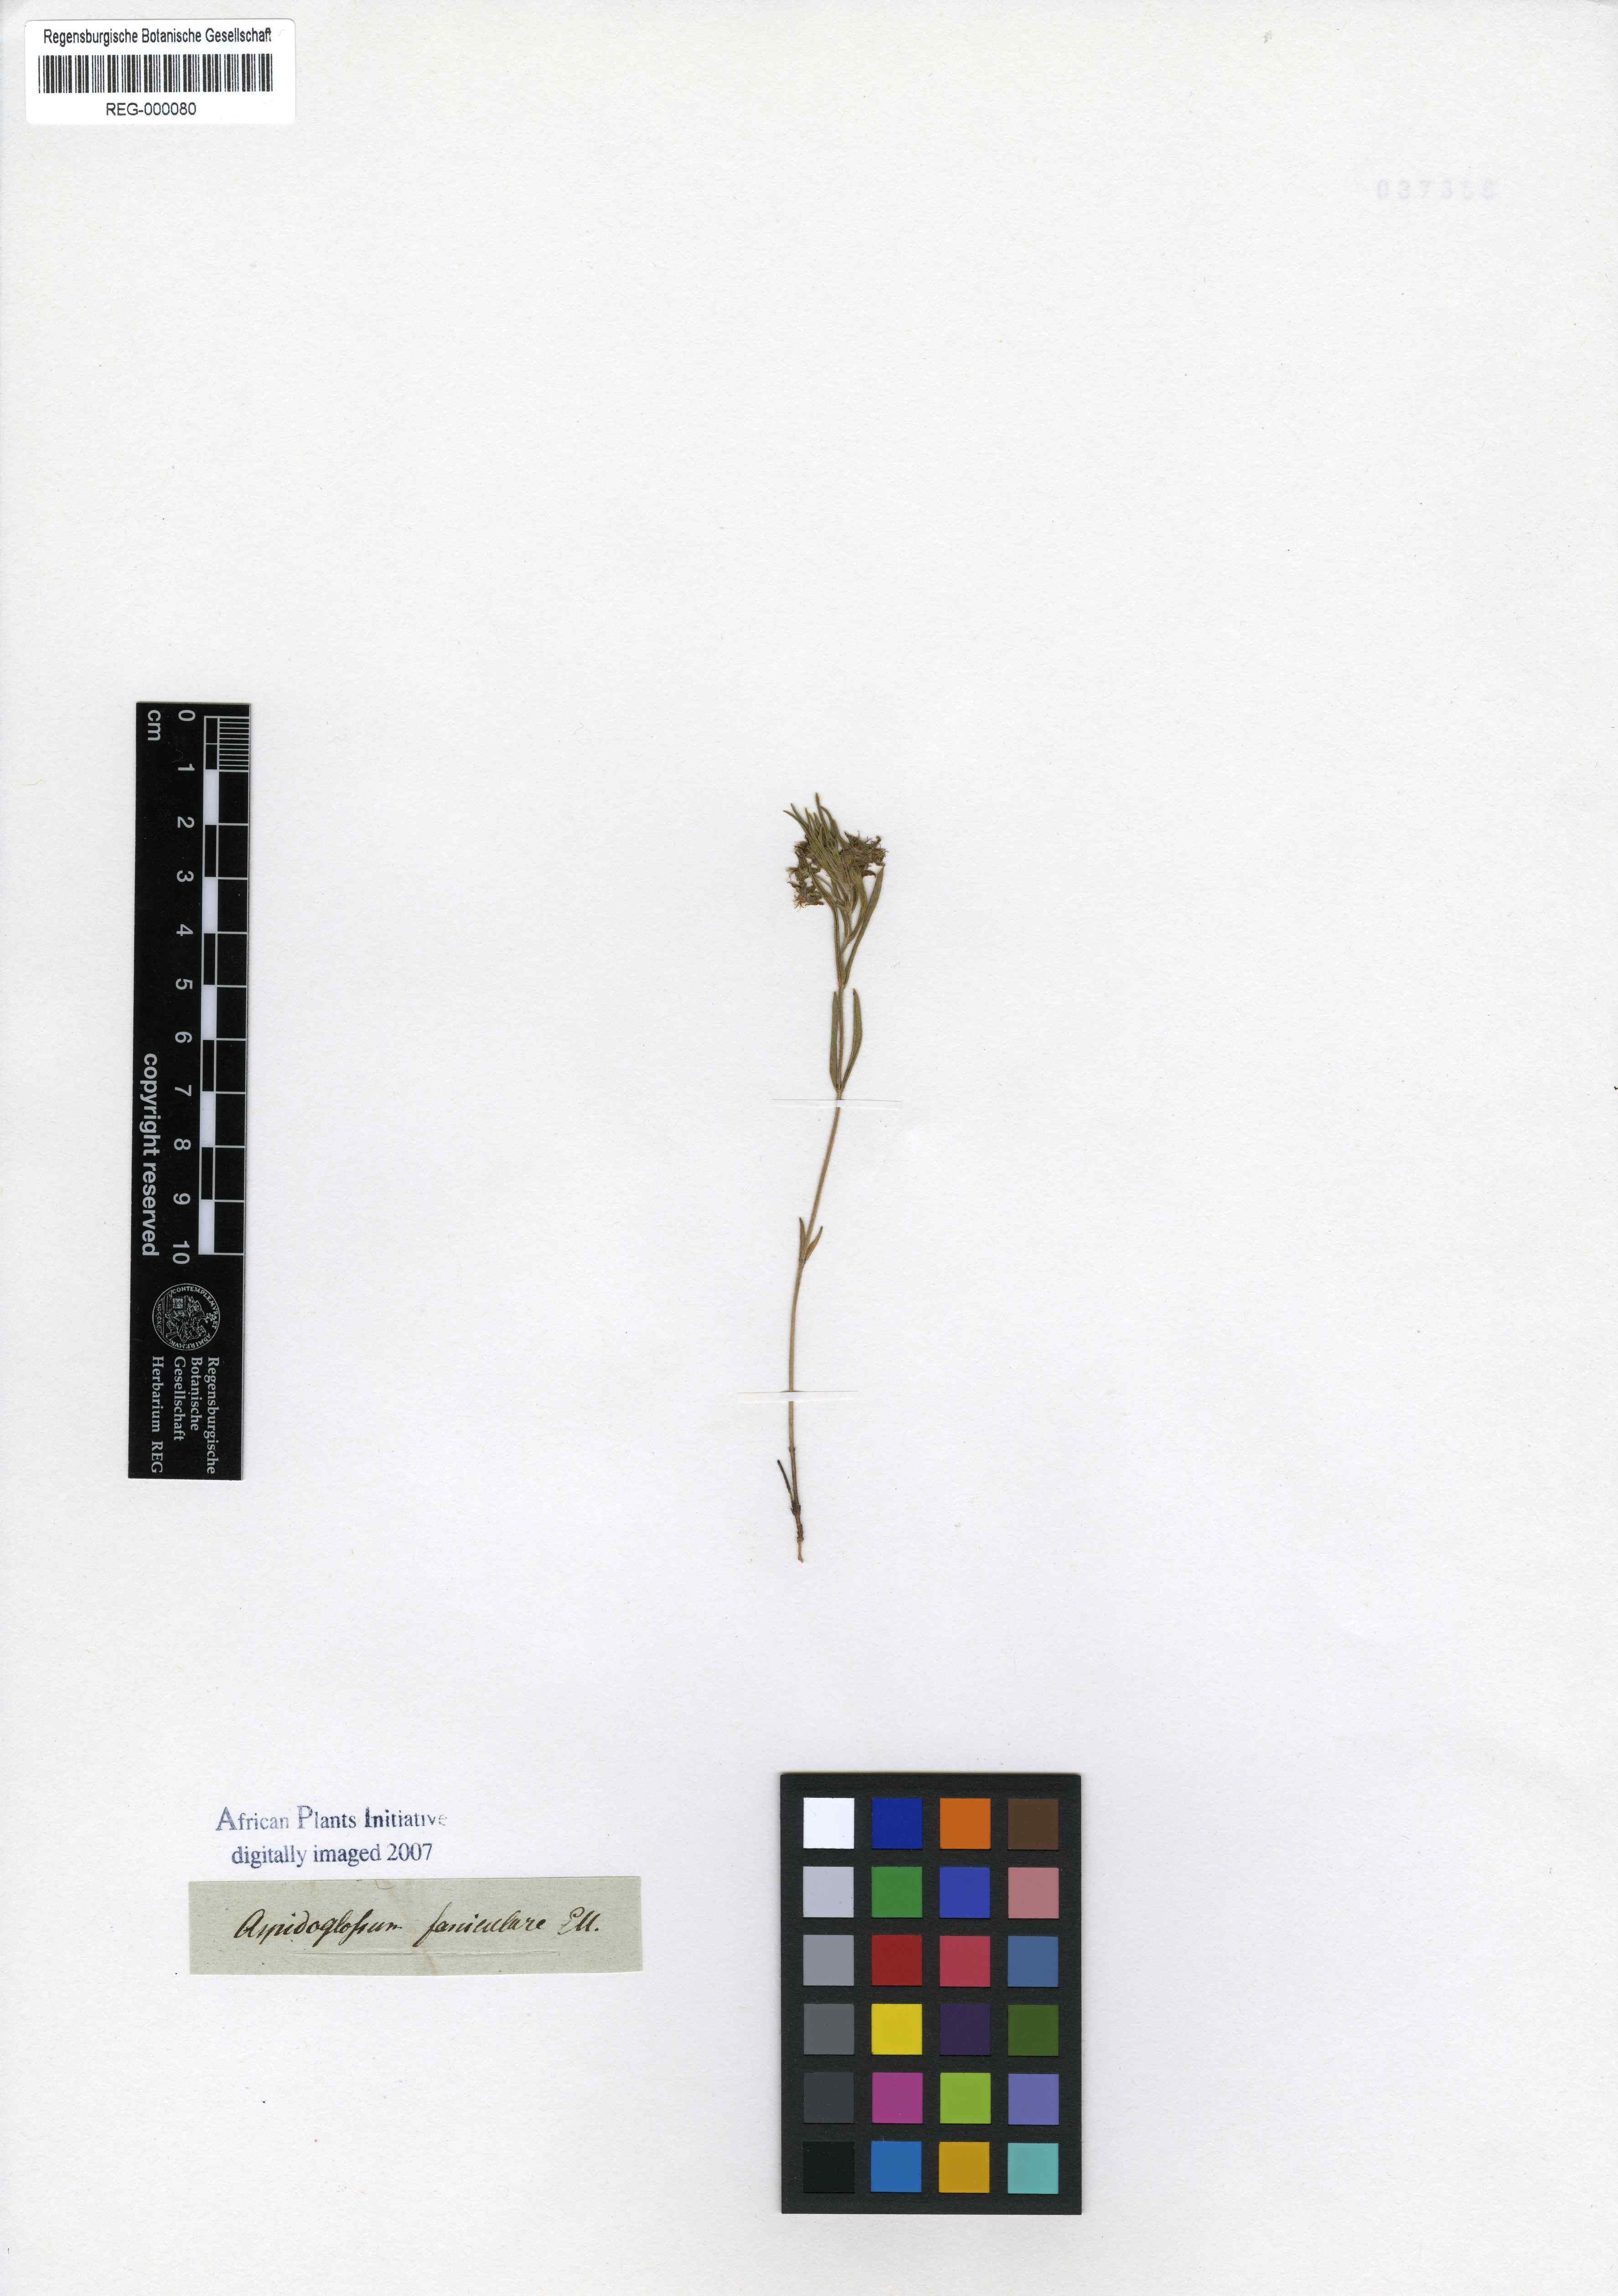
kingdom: Plantae
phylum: Tracheophyta
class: Magnoliopsida
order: Gentianales
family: Apocynaceae
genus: Aspidoglossum
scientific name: Aspidoglossum fasciculare
